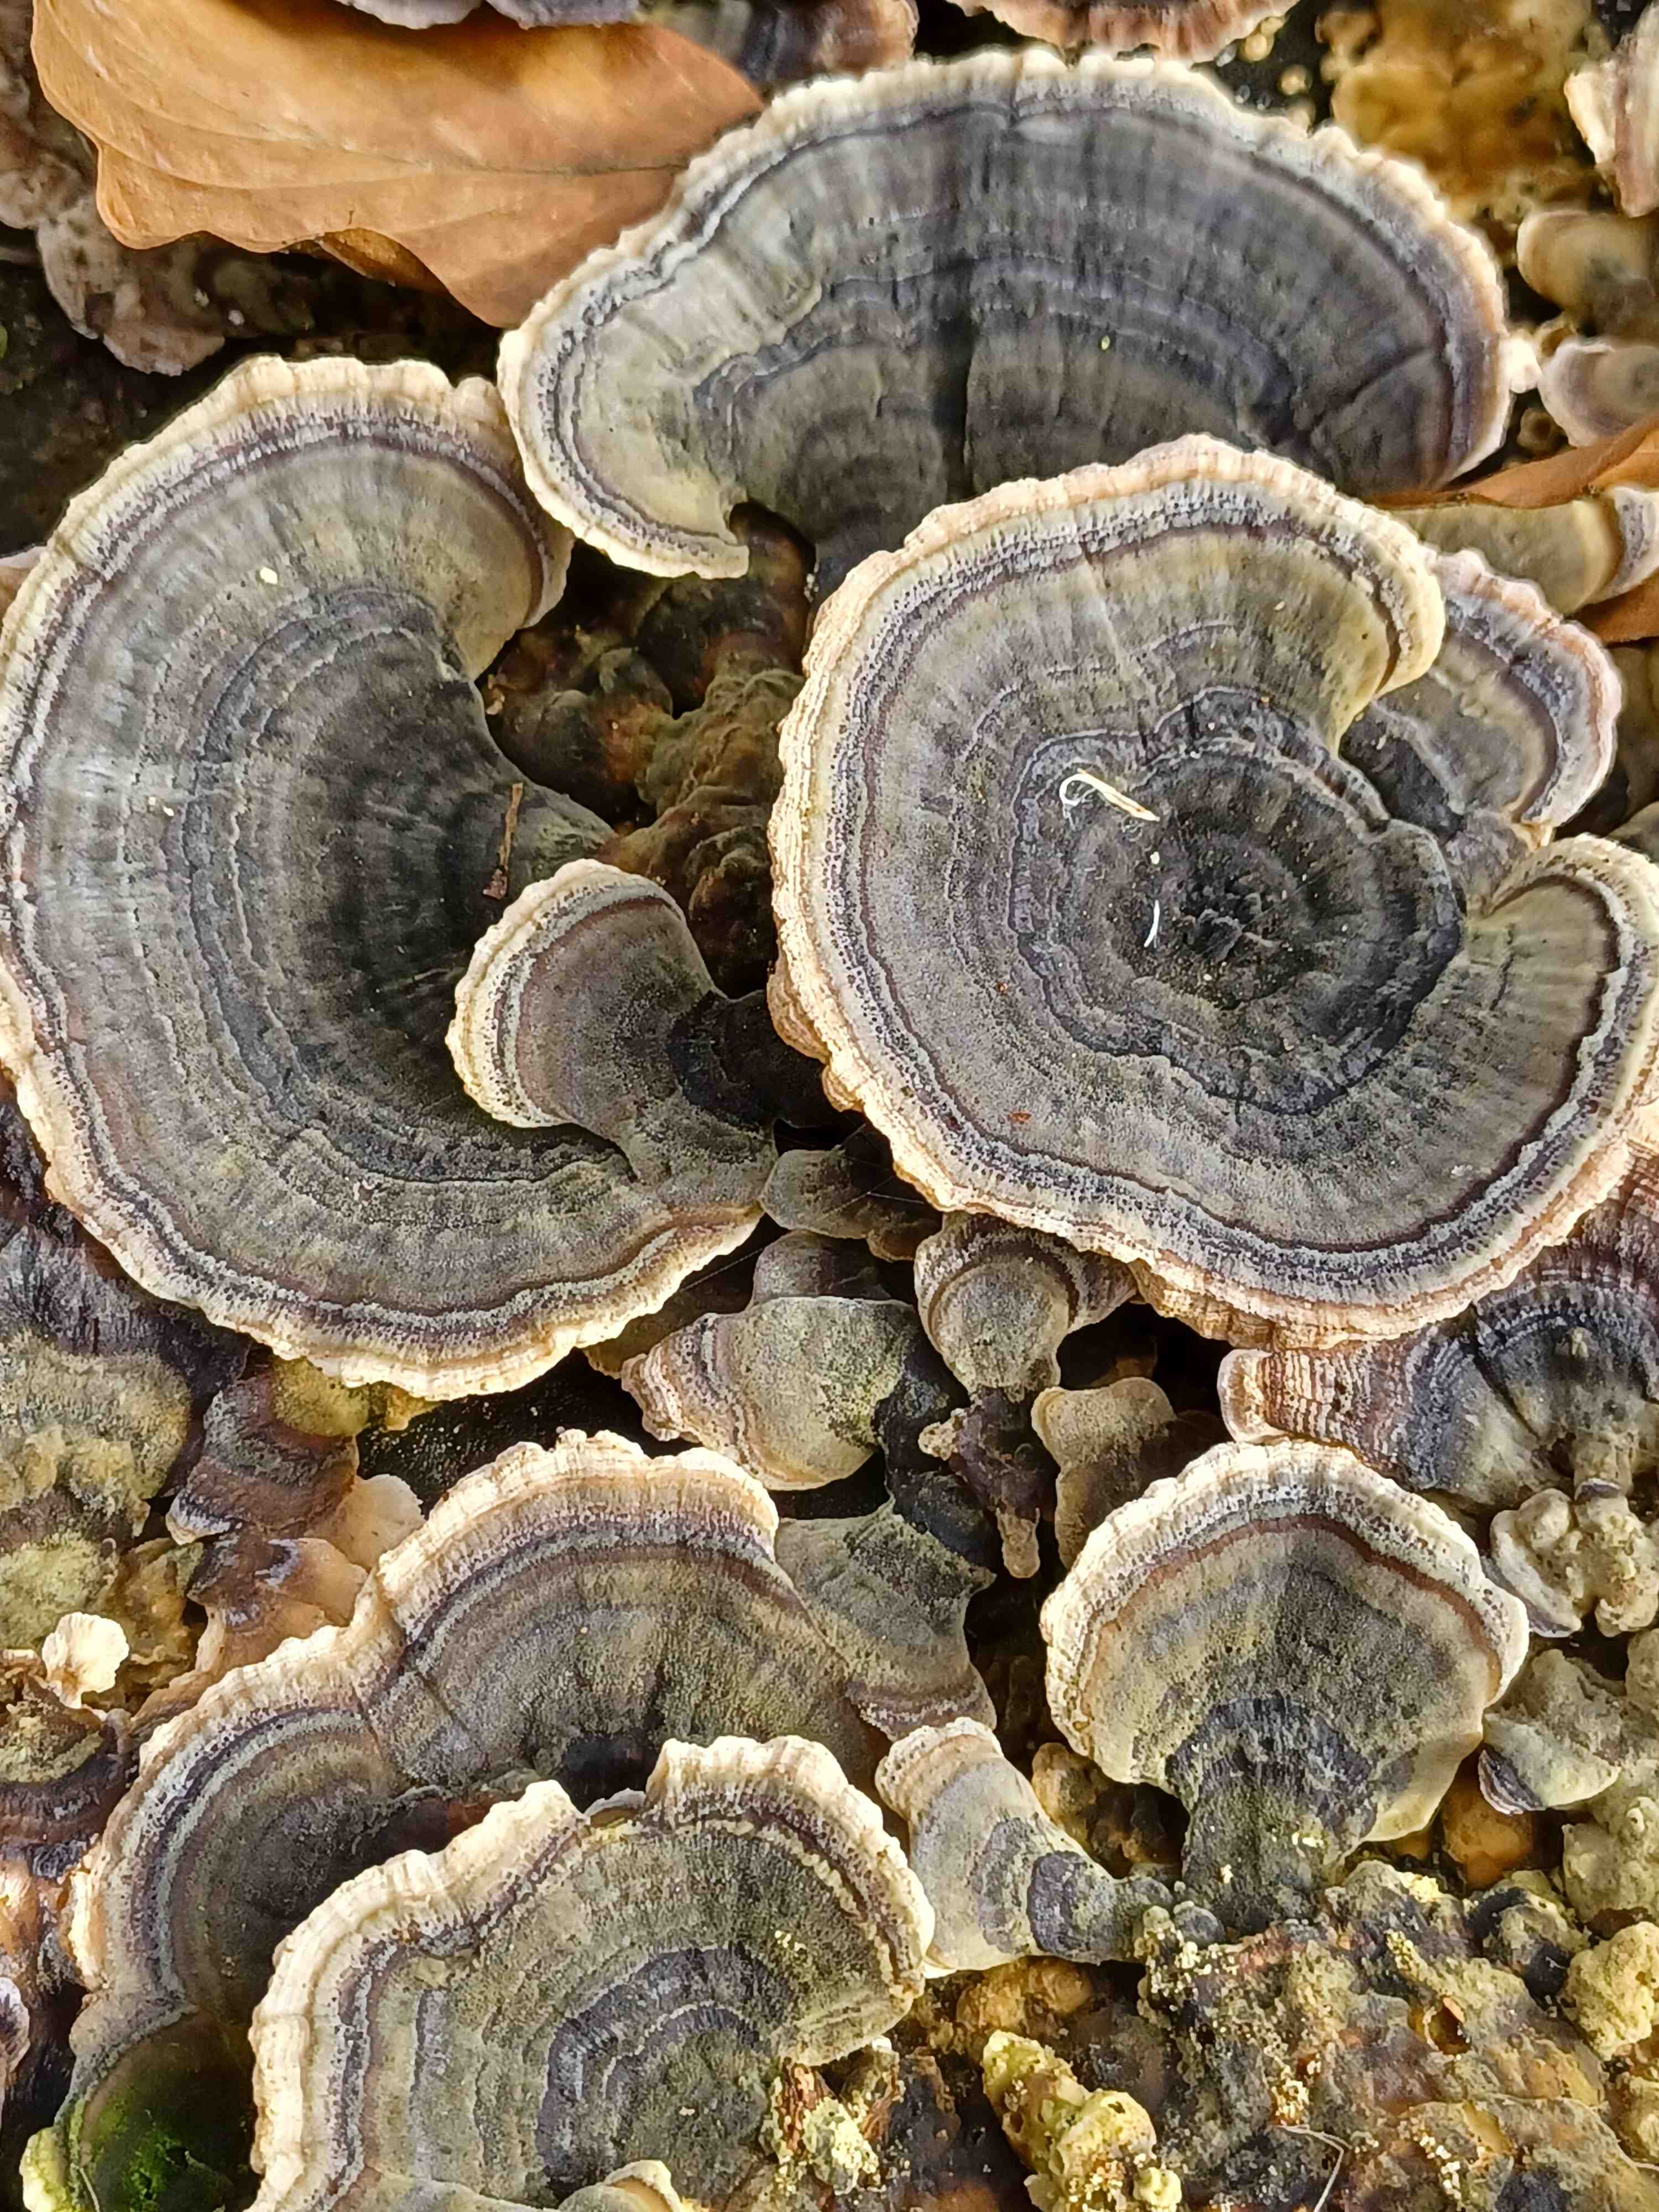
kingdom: Fungi
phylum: Basidiomycota
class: Agaricomycetes
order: Polyporales
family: Polyporaceae
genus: Trametes
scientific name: Trametes versicolor
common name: broget læderporesvamp
